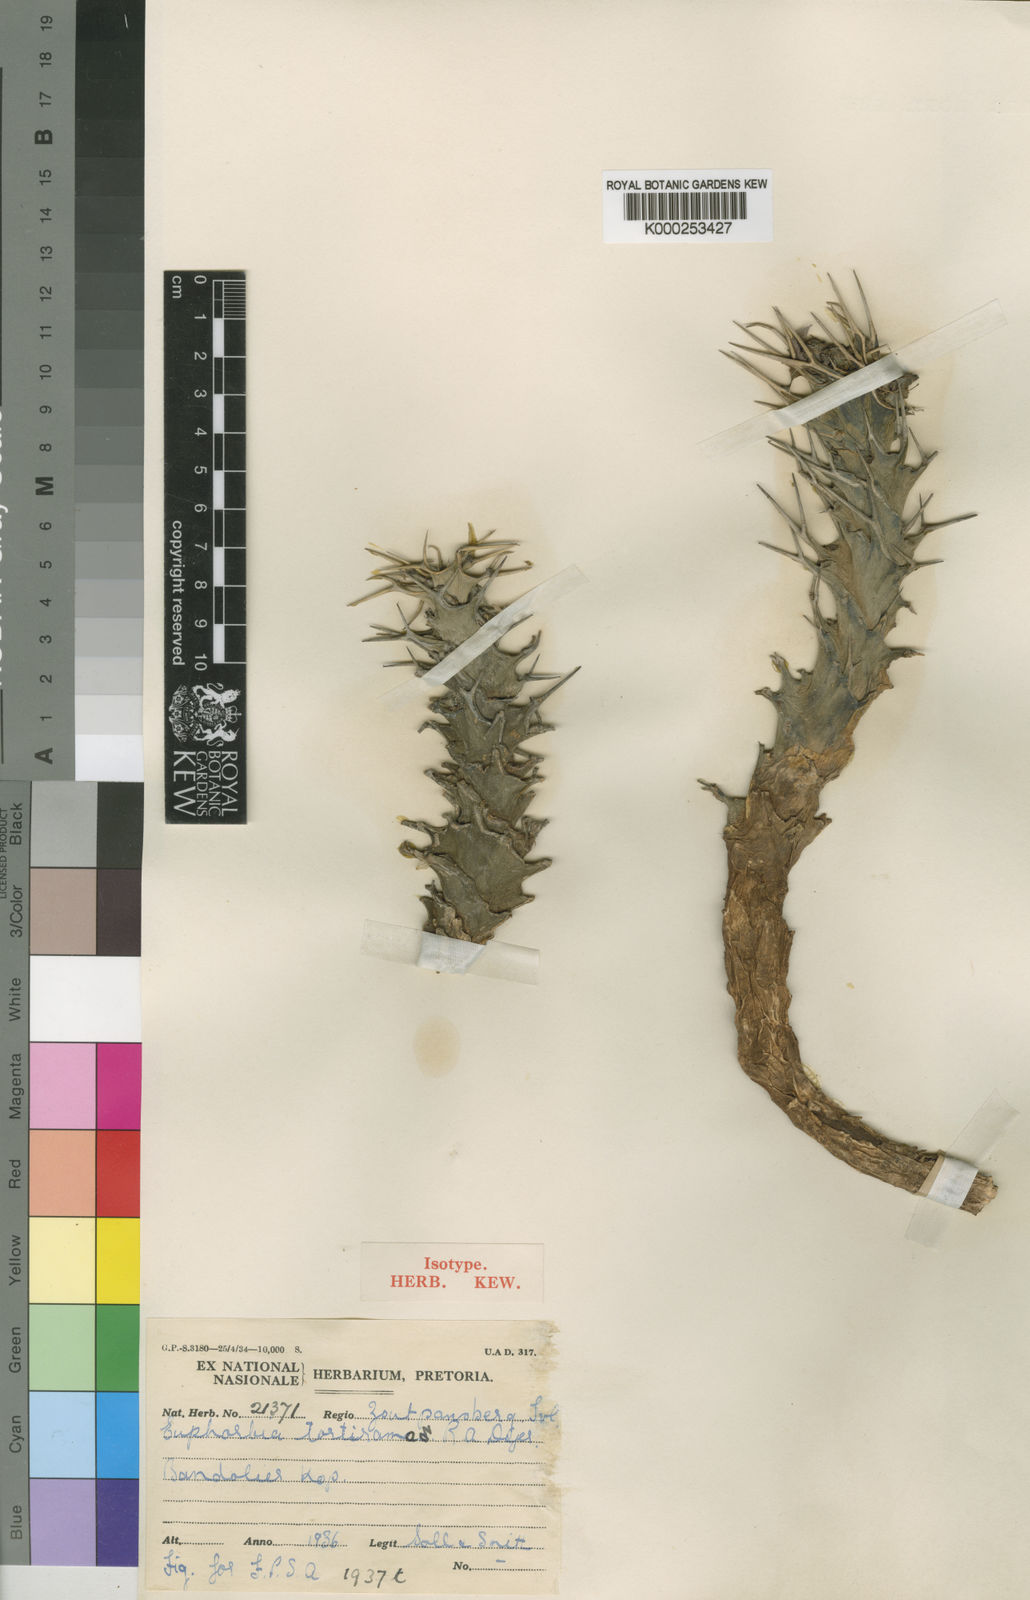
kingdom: Plantae
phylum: Tracheophyta
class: Magnoliopsida
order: Malpighiales
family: Euphorbiaceae
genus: Euphorbia
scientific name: Euphorbia tortirama
